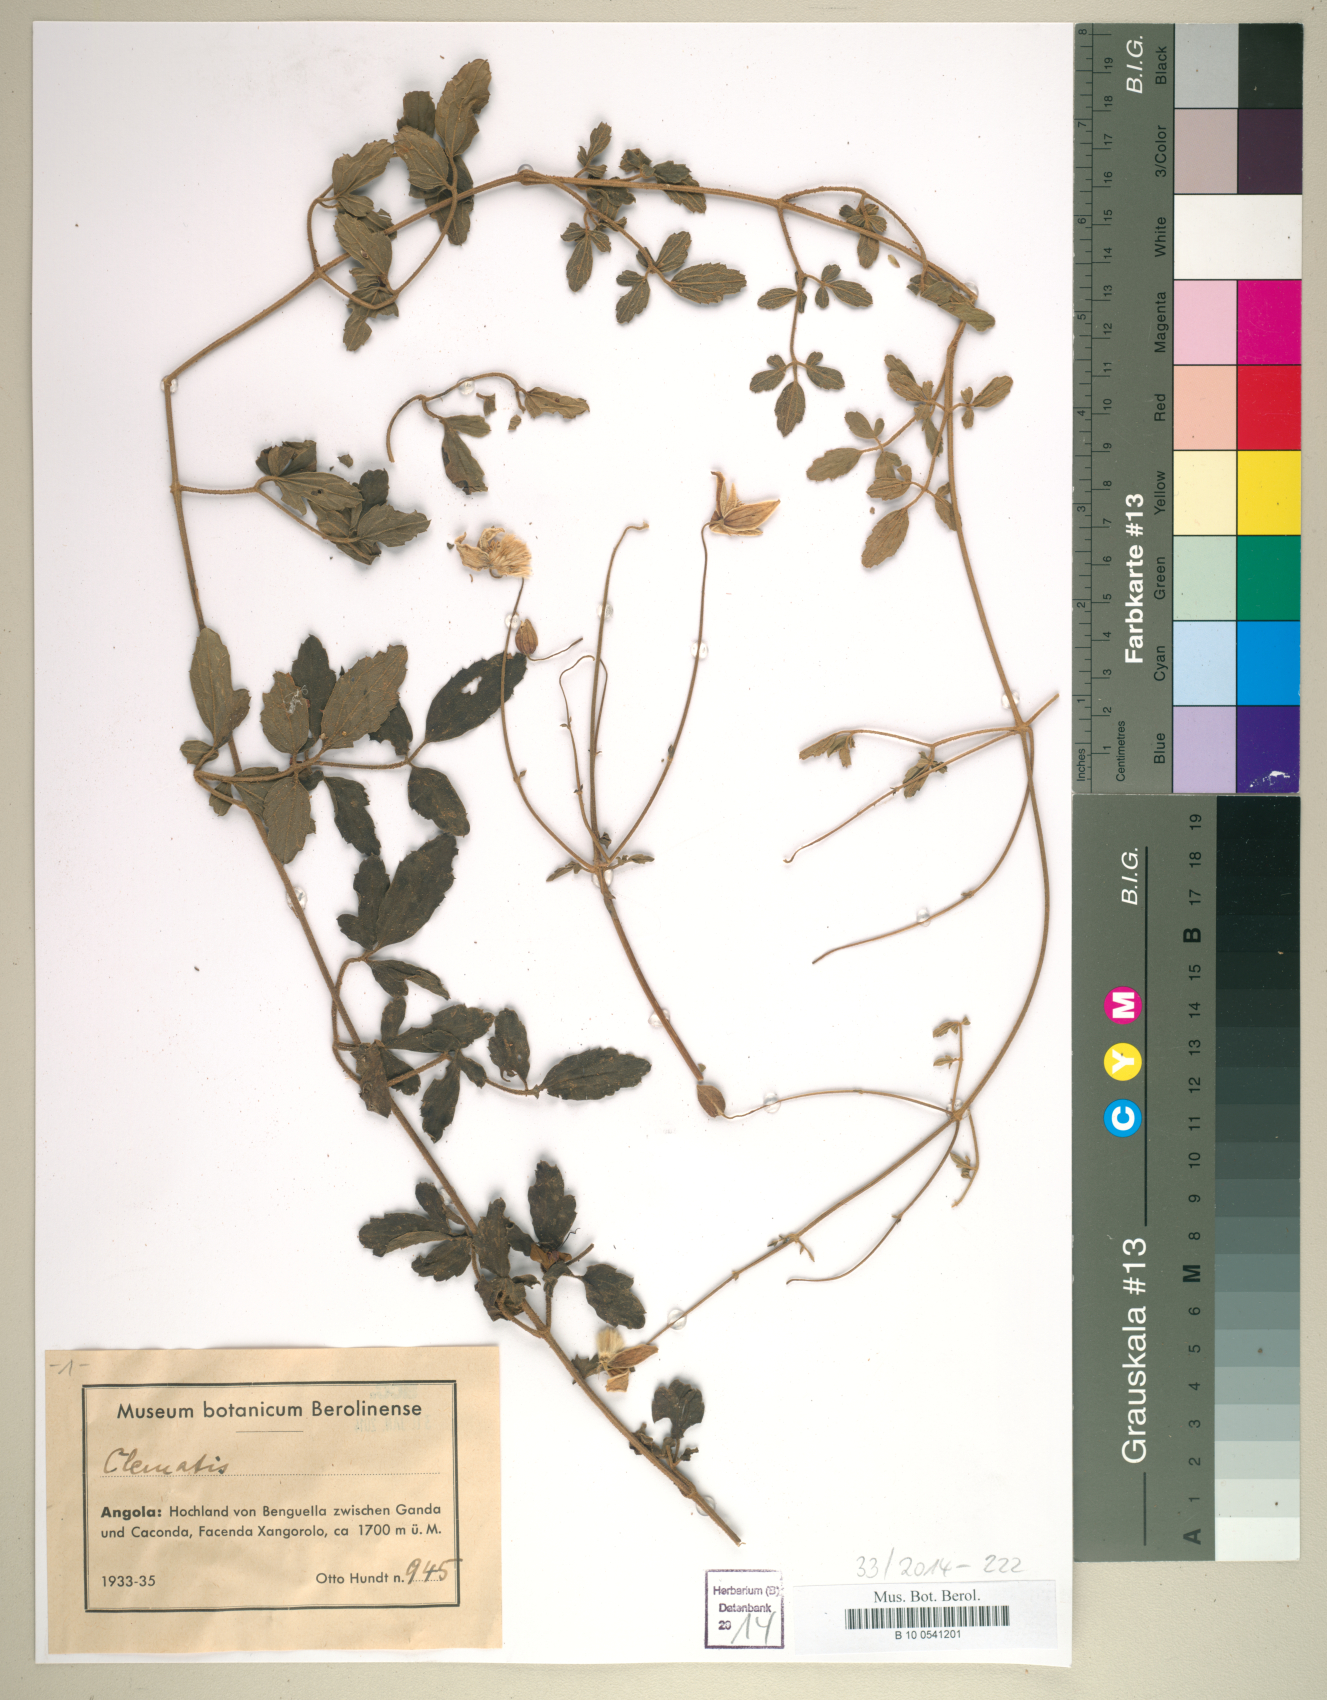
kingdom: Plantae
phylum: Tracheophyta
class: Magnoliopsida
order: Ranunculales
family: Ranunculaceae
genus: Clematis
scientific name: Clematis
